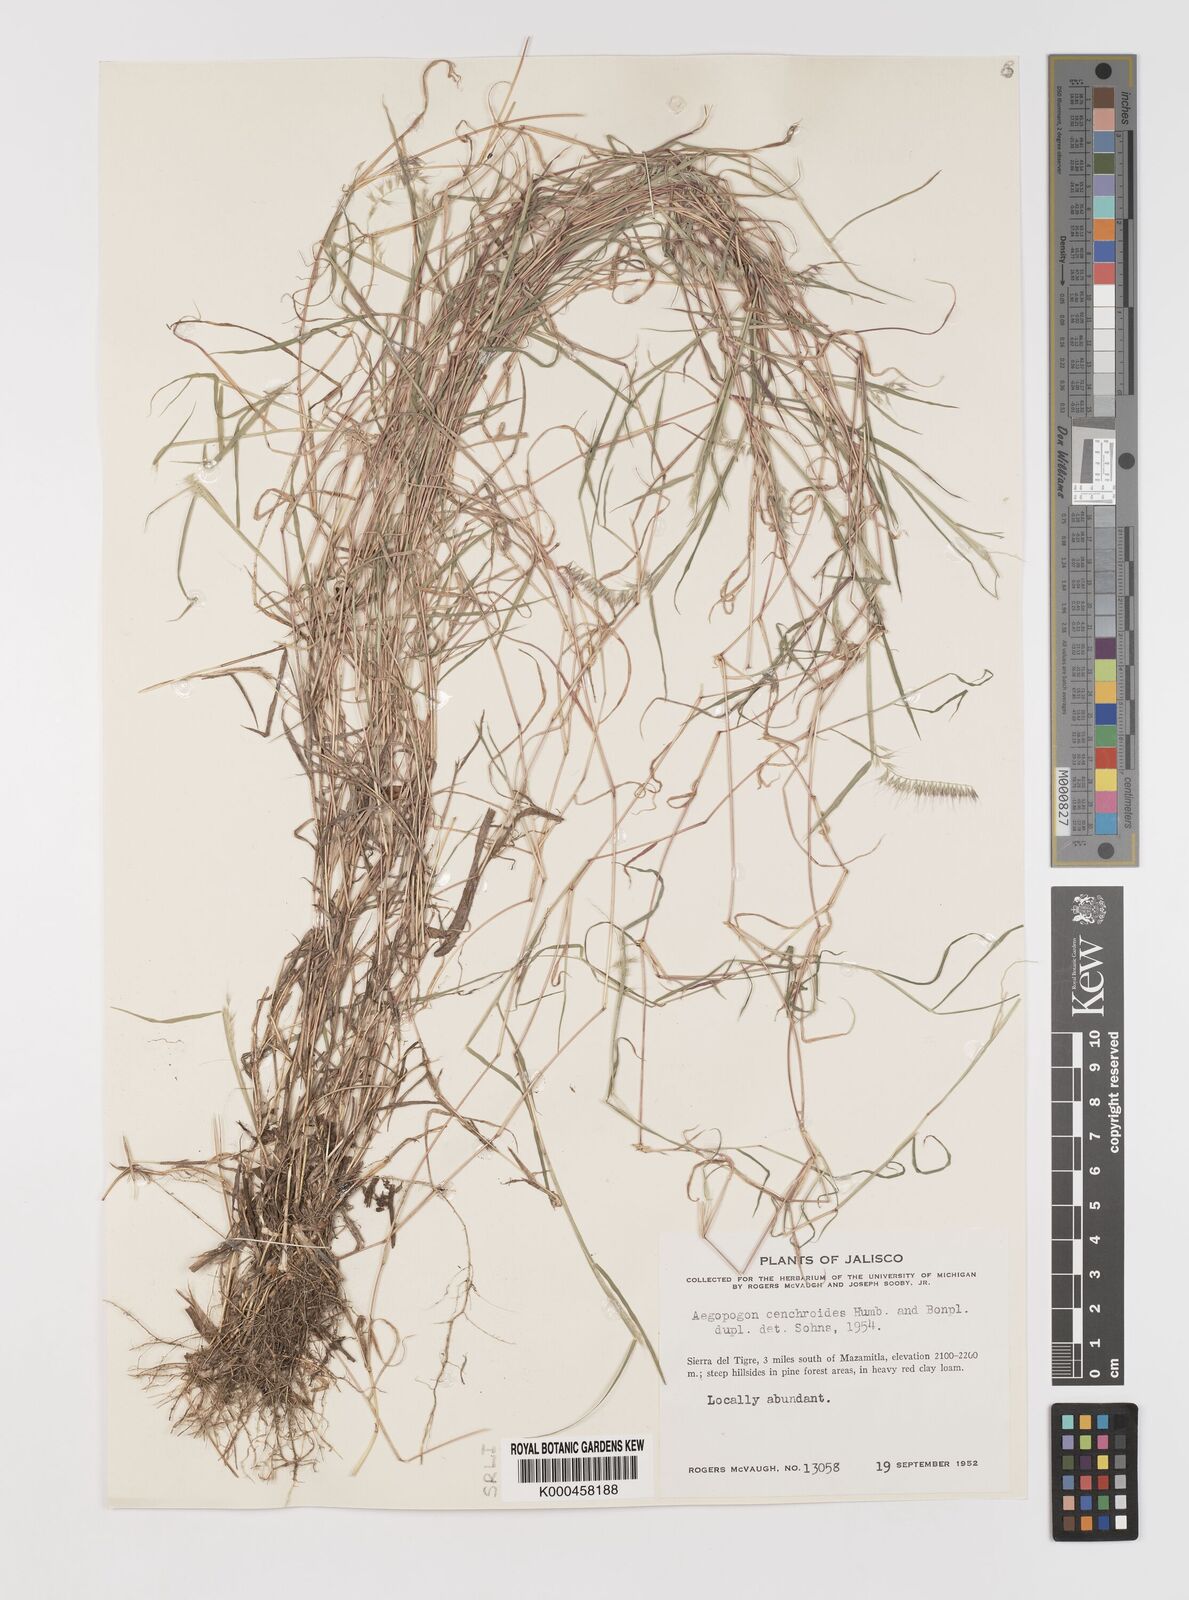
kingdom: Plantae
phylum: Tracheophyta
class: Liliopsida
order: Poales
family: Poaceae
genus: Muhlenbergia
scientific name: Muhlenbergia
